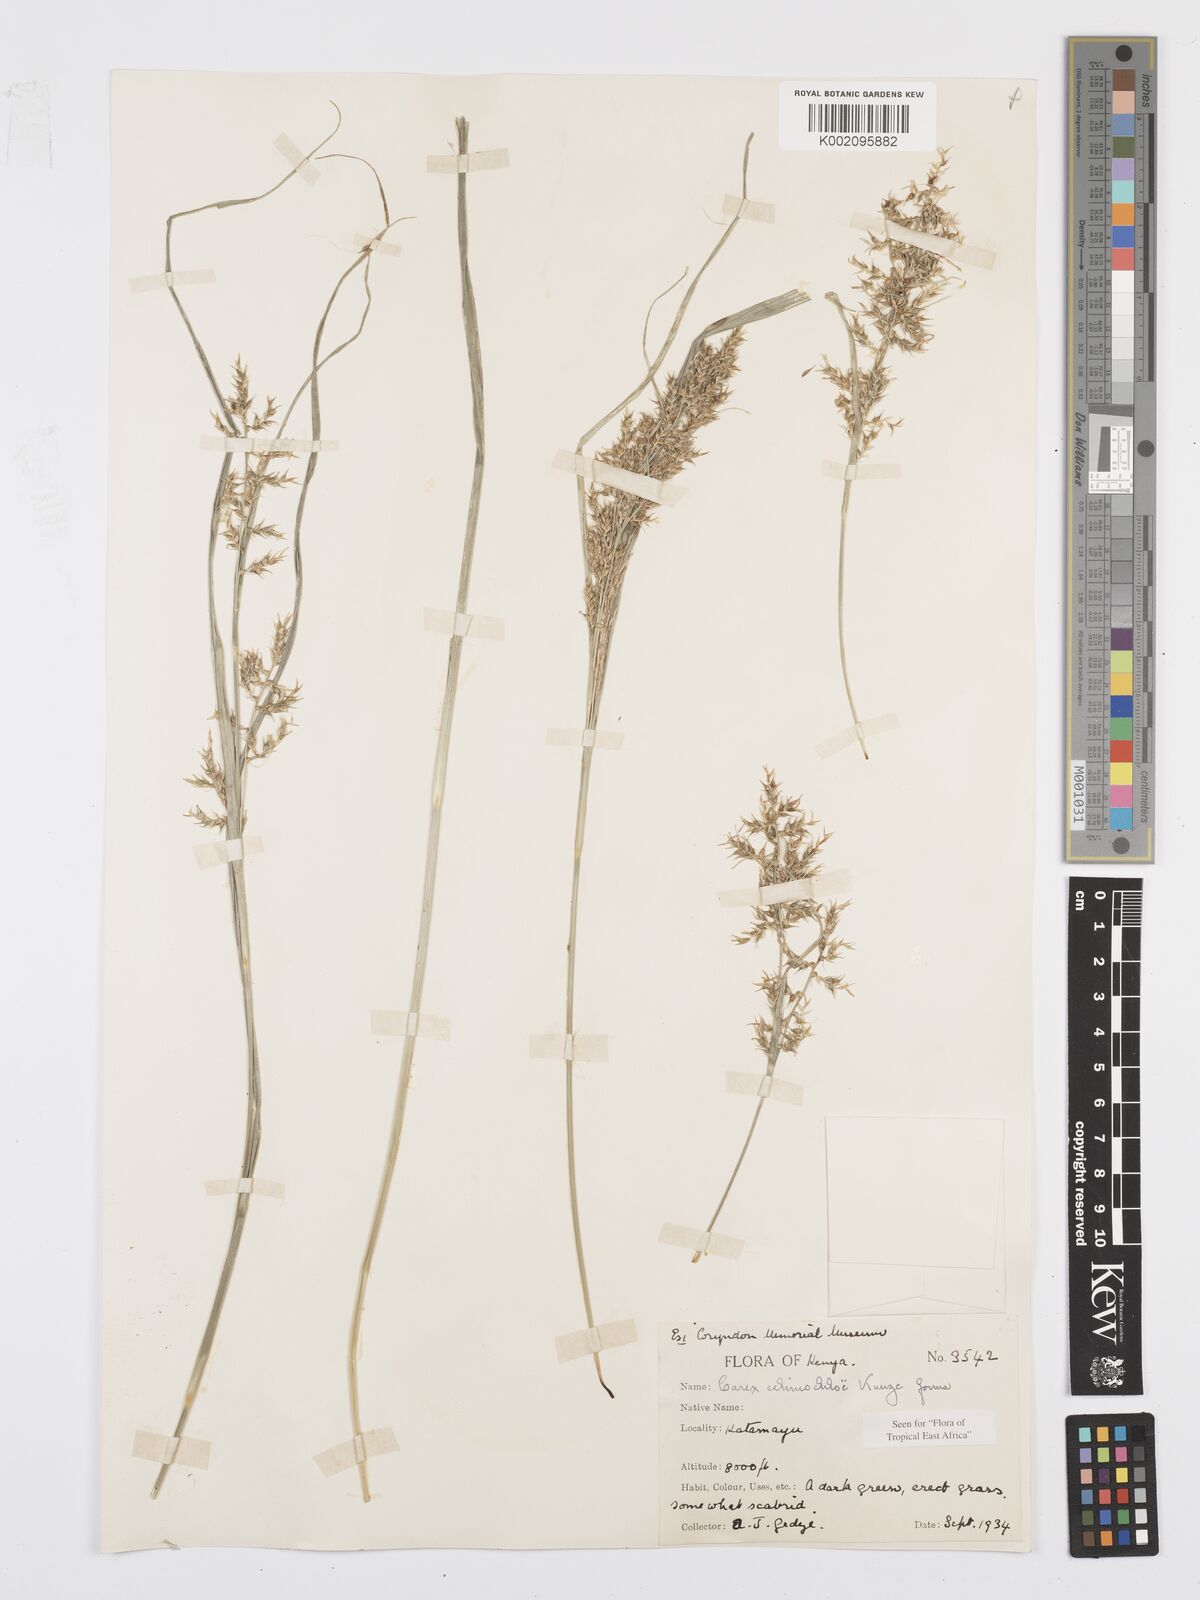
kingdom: Plantae
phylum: Tracheophyta
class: Liliopsida
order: Poales
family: Cyperaceae
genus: Carex
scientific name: Carex chlorosaccus
